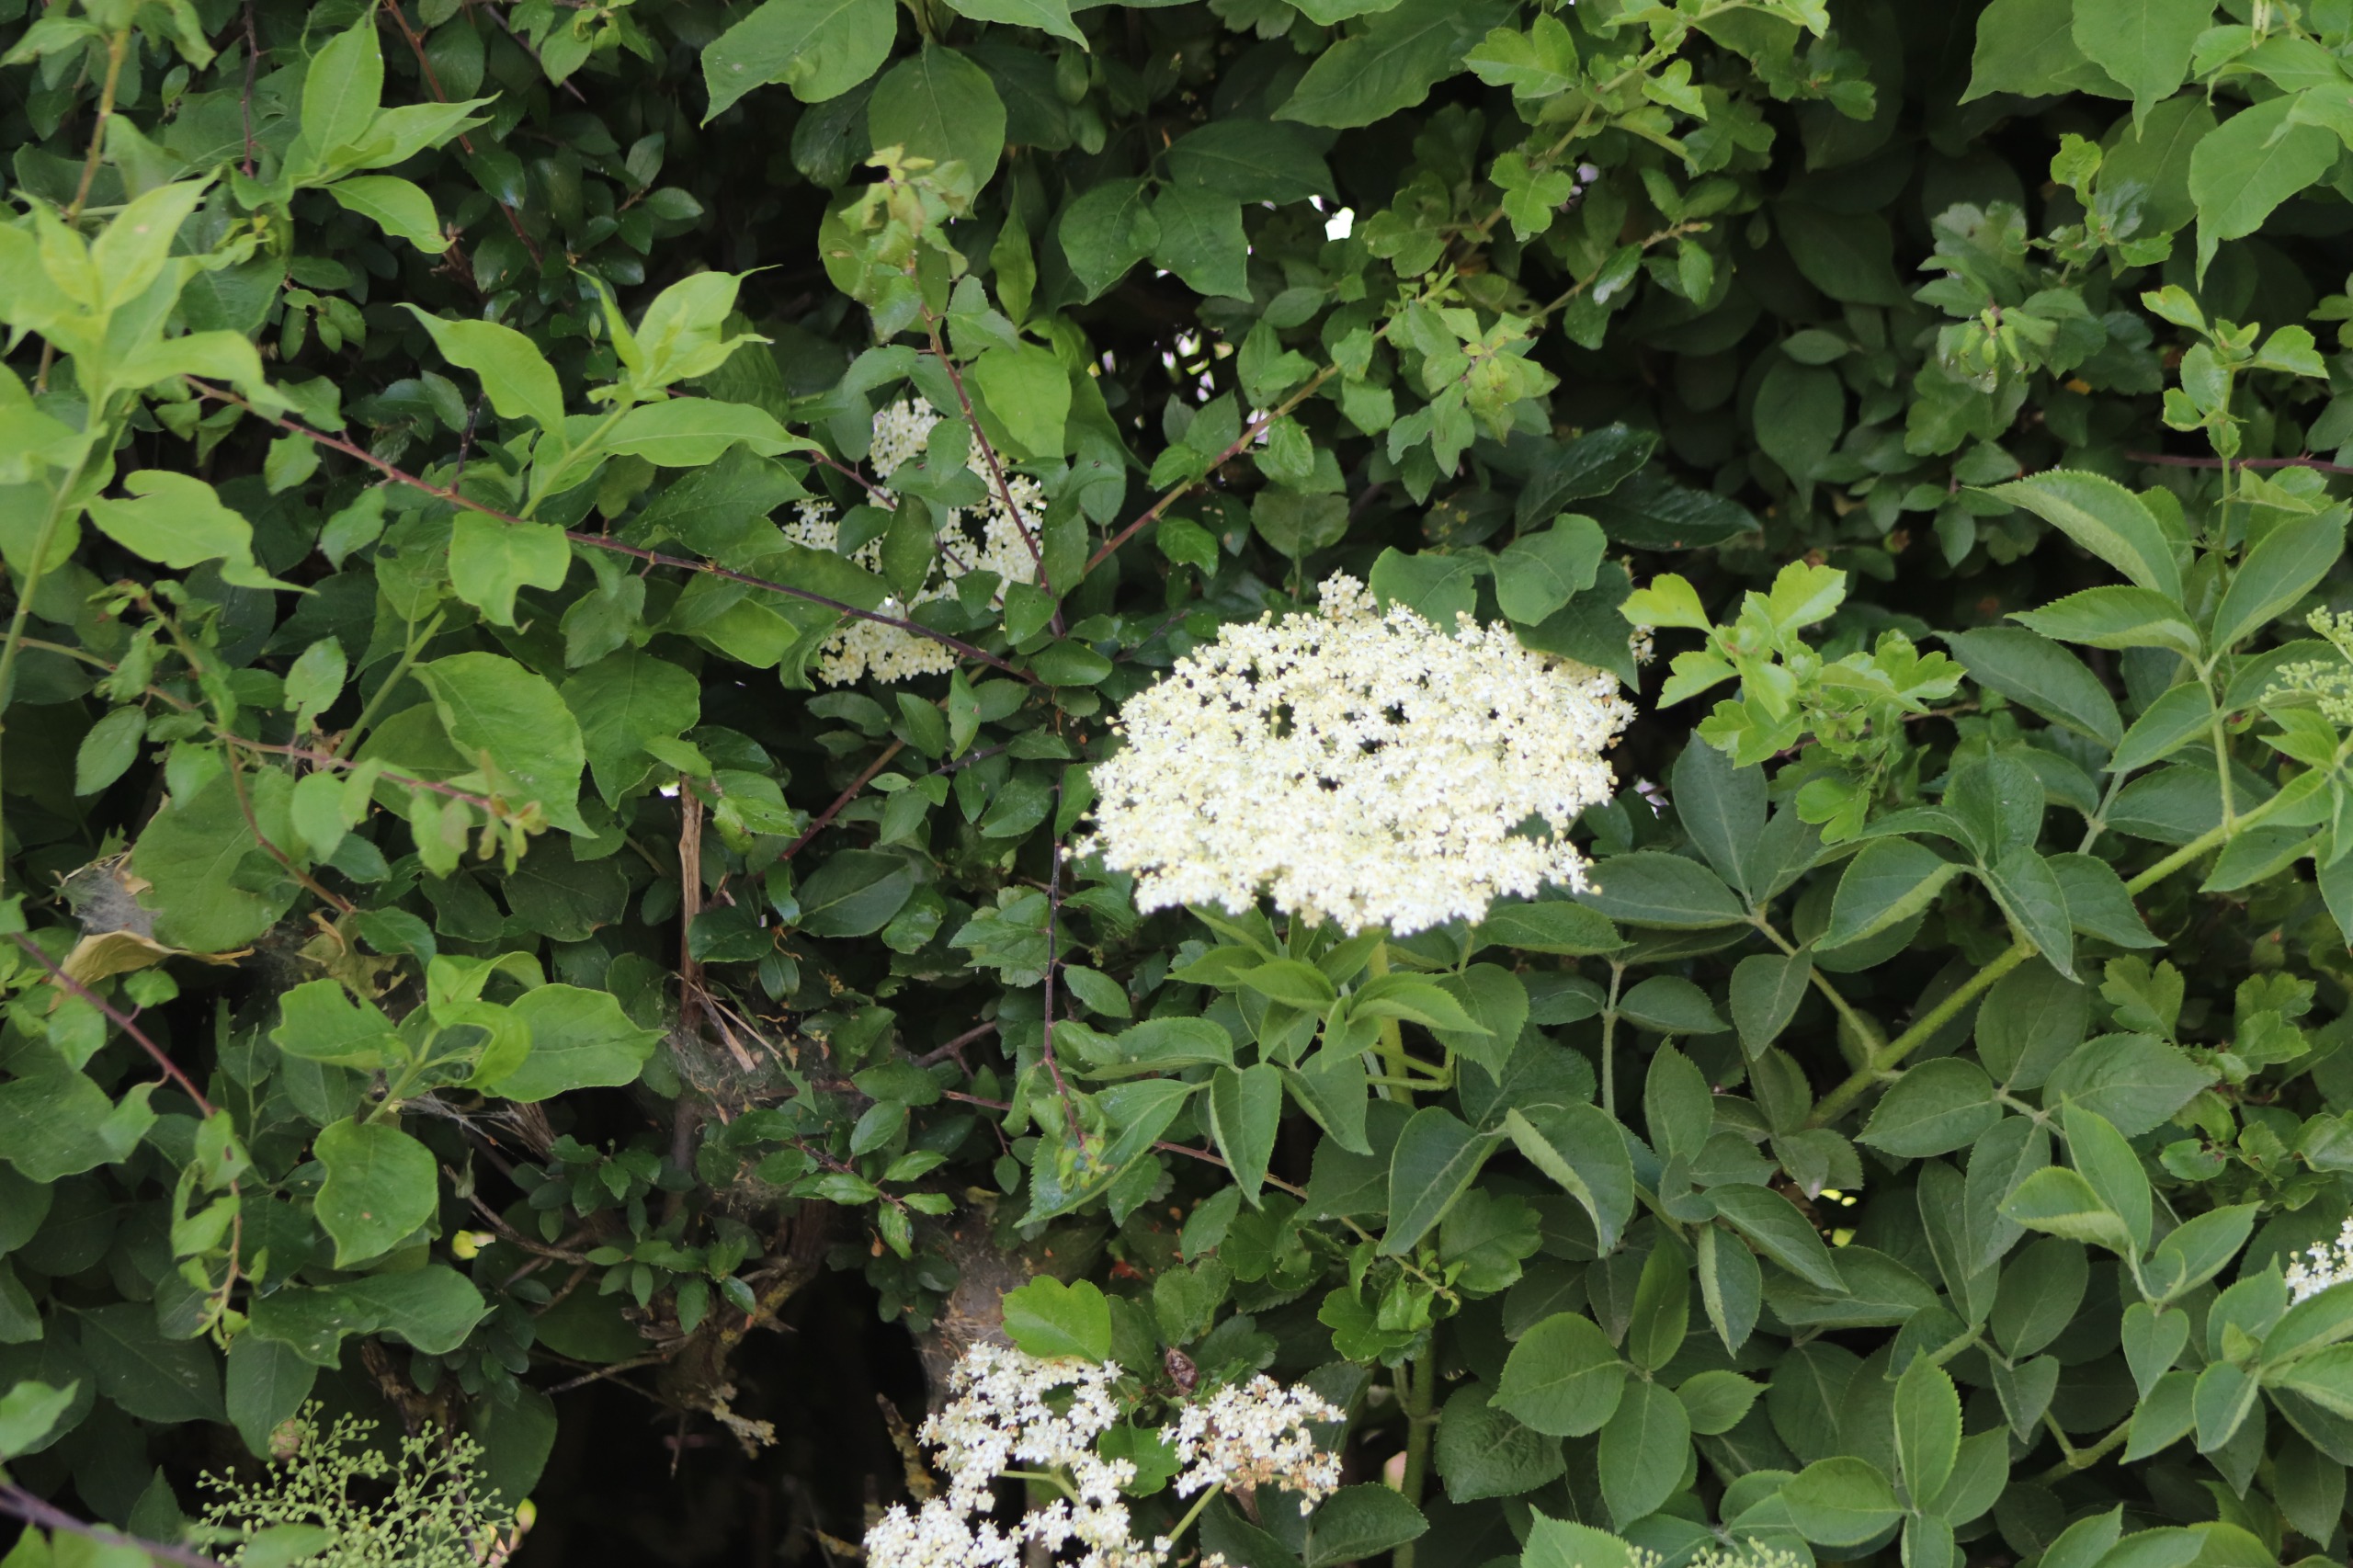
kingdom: Plantae
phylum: Tracheophyta
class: Magnoliopsida
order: Dipsacales
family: Viburnaceae
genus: Sambucus
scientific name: Sambucus nigra
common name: Almindelig hyld
